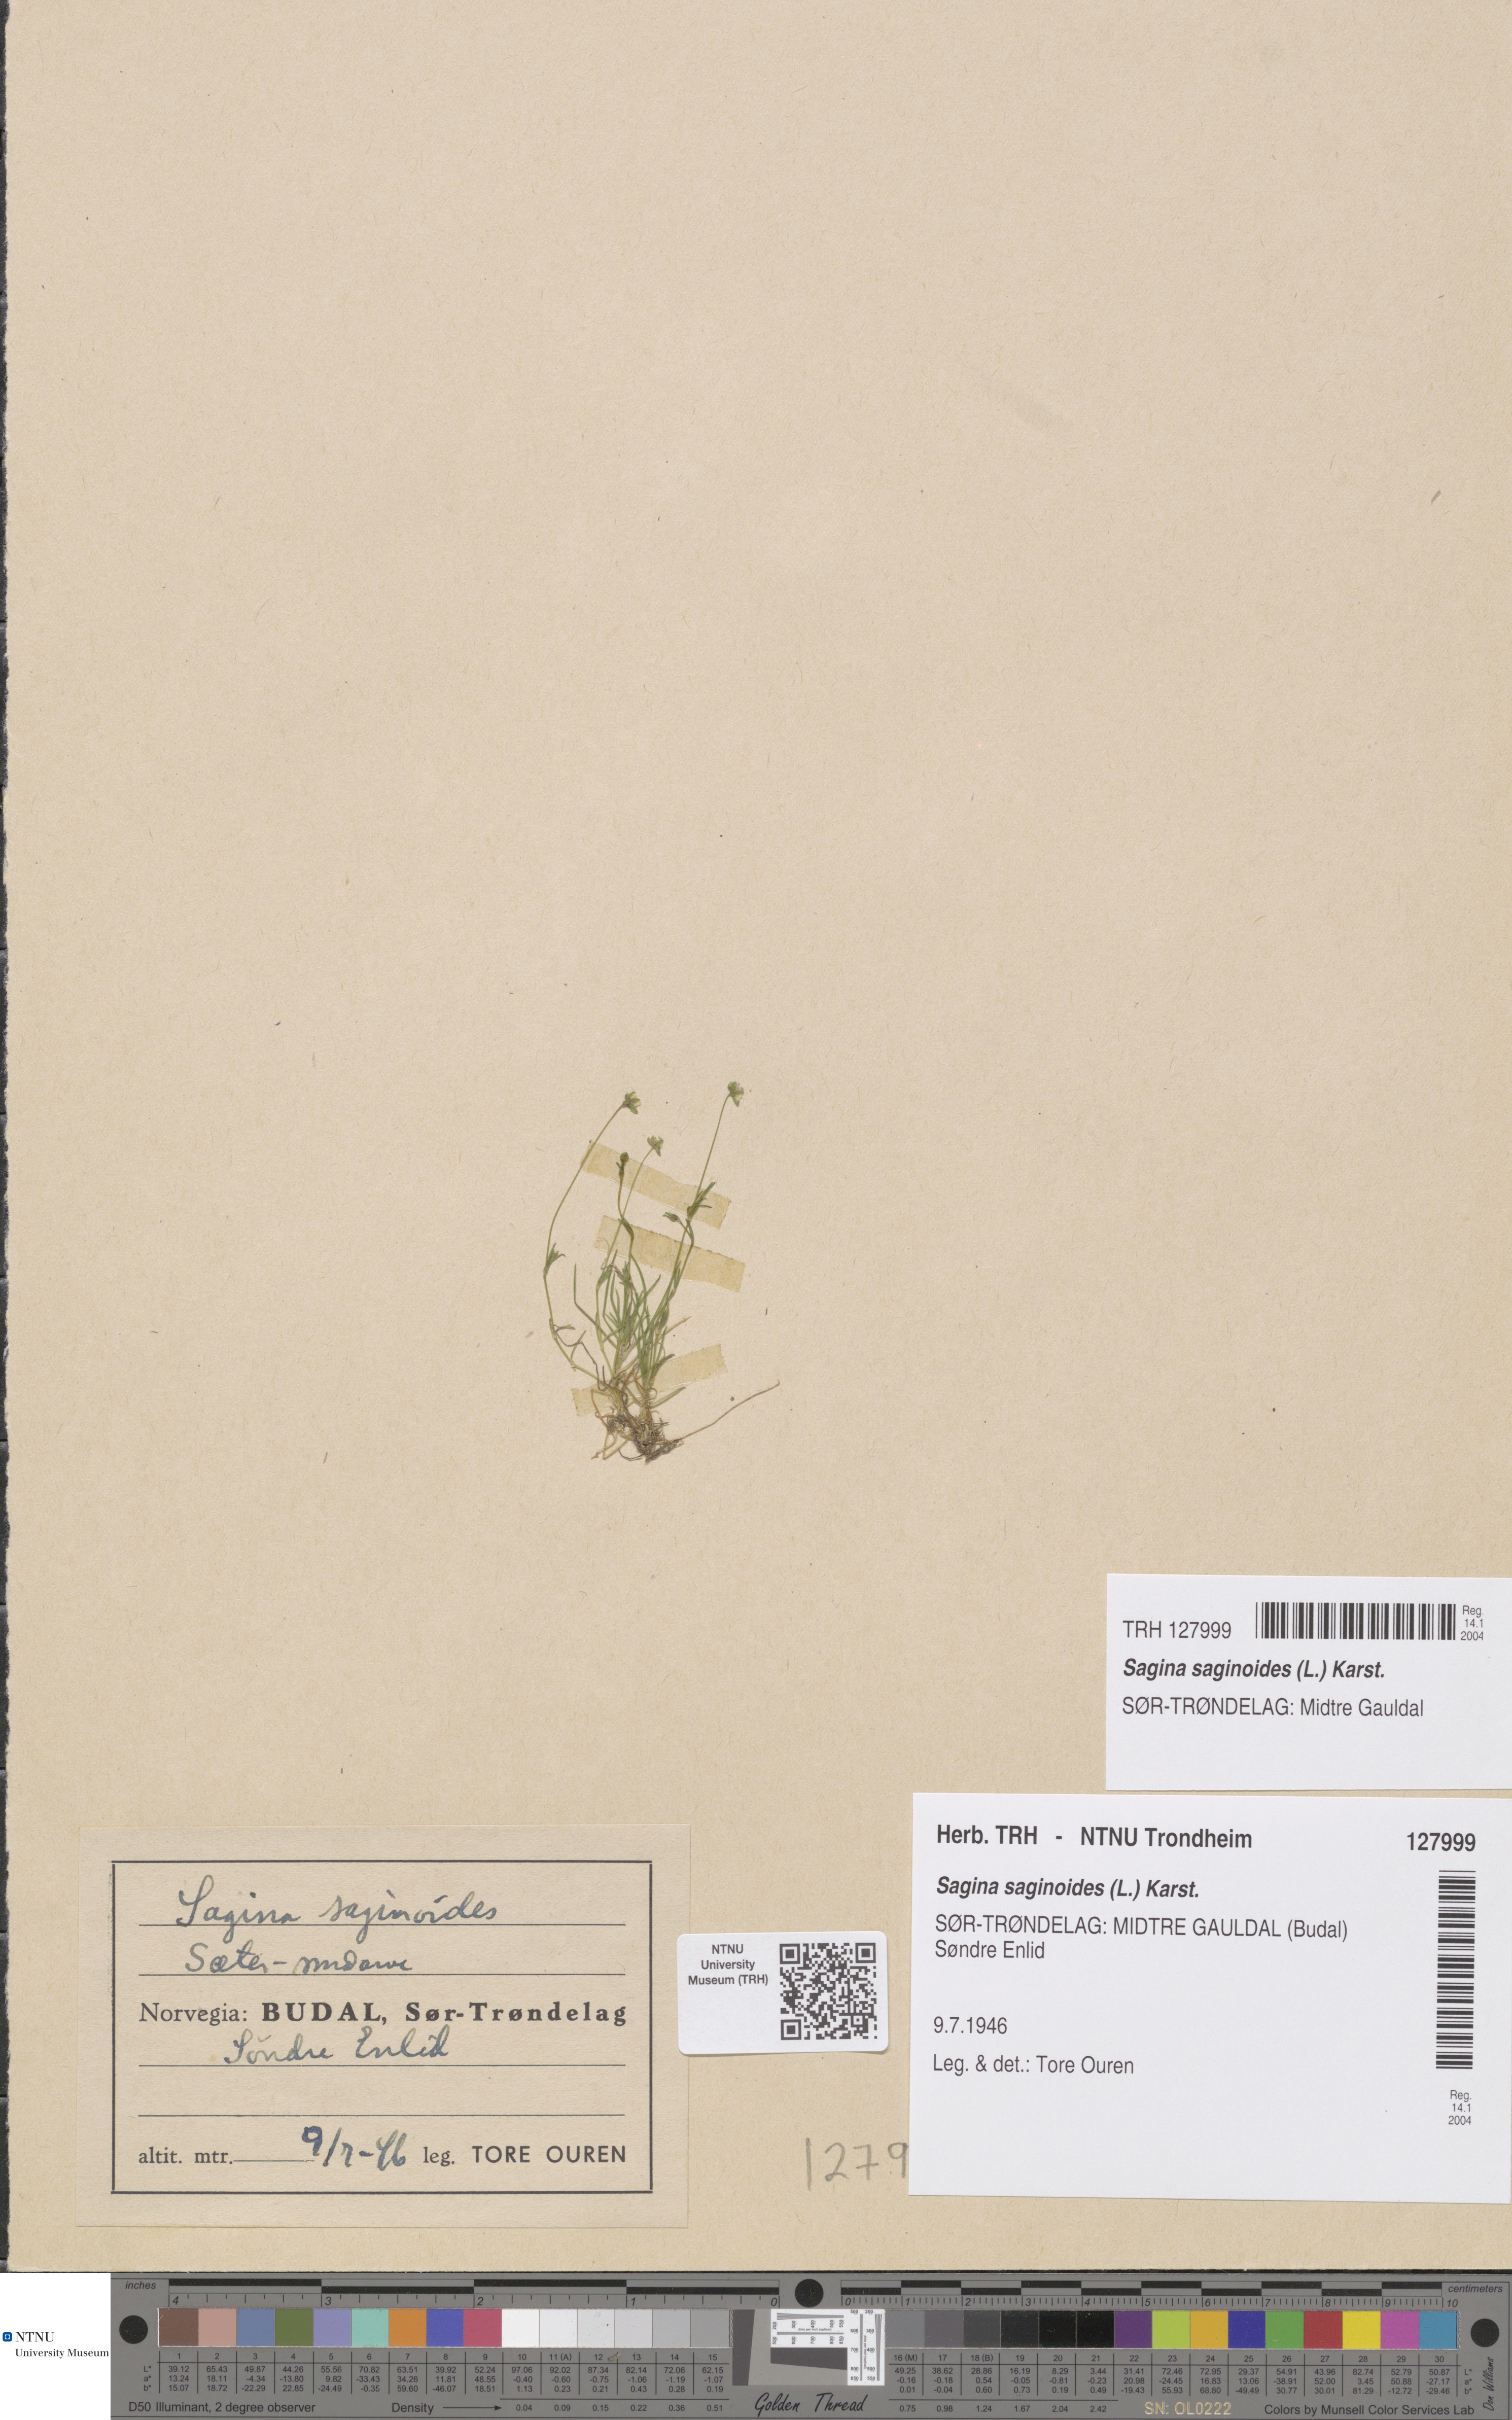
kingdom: Plantae
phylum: Tracheophyta
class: Magnoliopsida
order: Caryophyllales
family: Caryophyllaceae
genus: Sagina
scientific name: Sagina saginoides
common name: Alpine pearlwort
